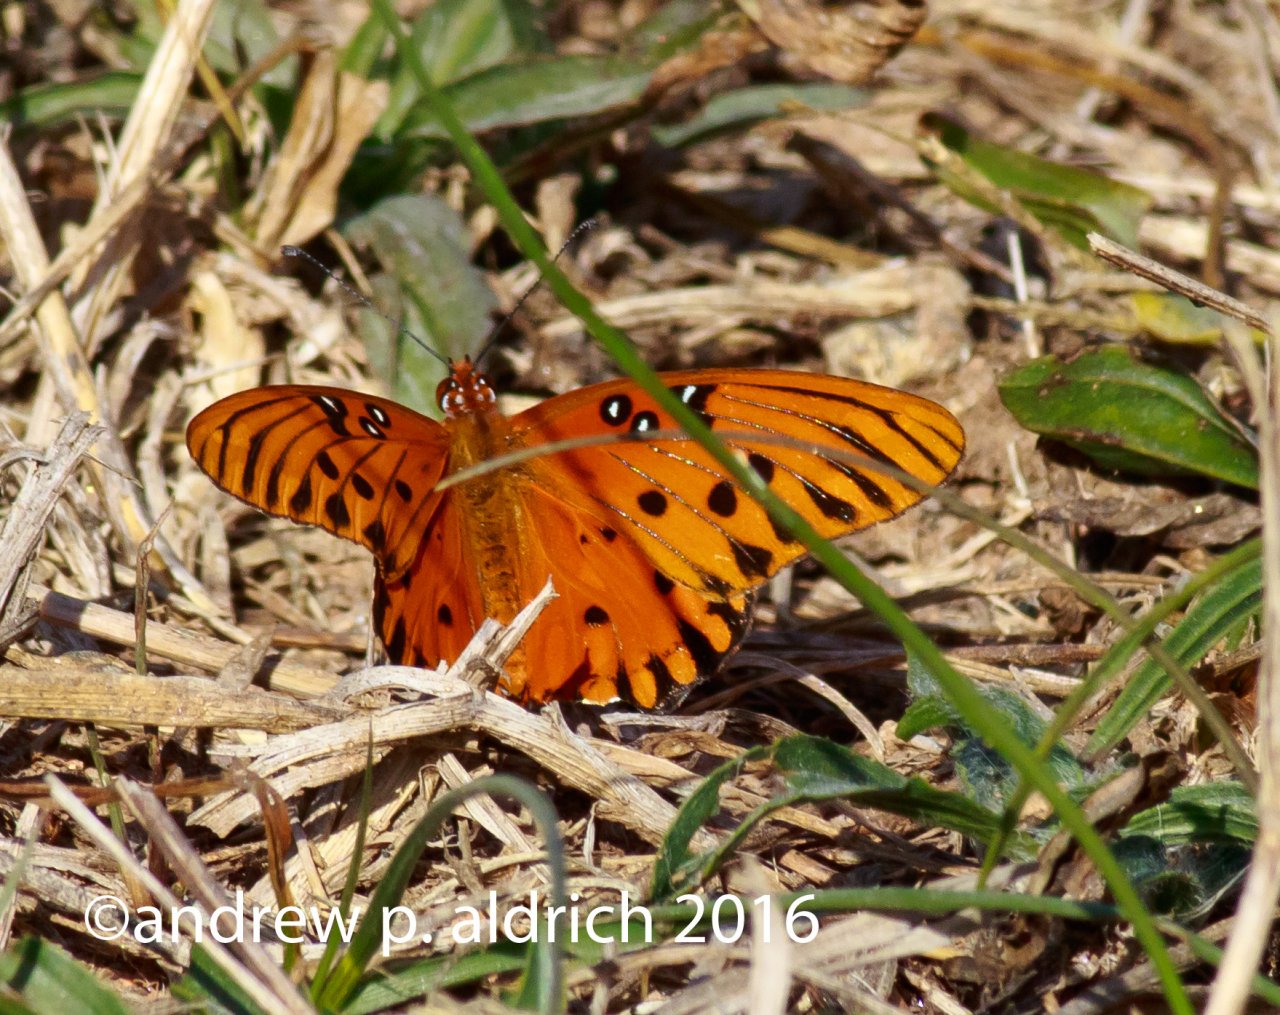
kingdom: Animalia
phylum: Arthropoda
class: Insecta
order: Lepidoptera
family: Nymphalidae
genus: Dione
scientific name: Dione vanillae
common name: Gulf Fritillary
